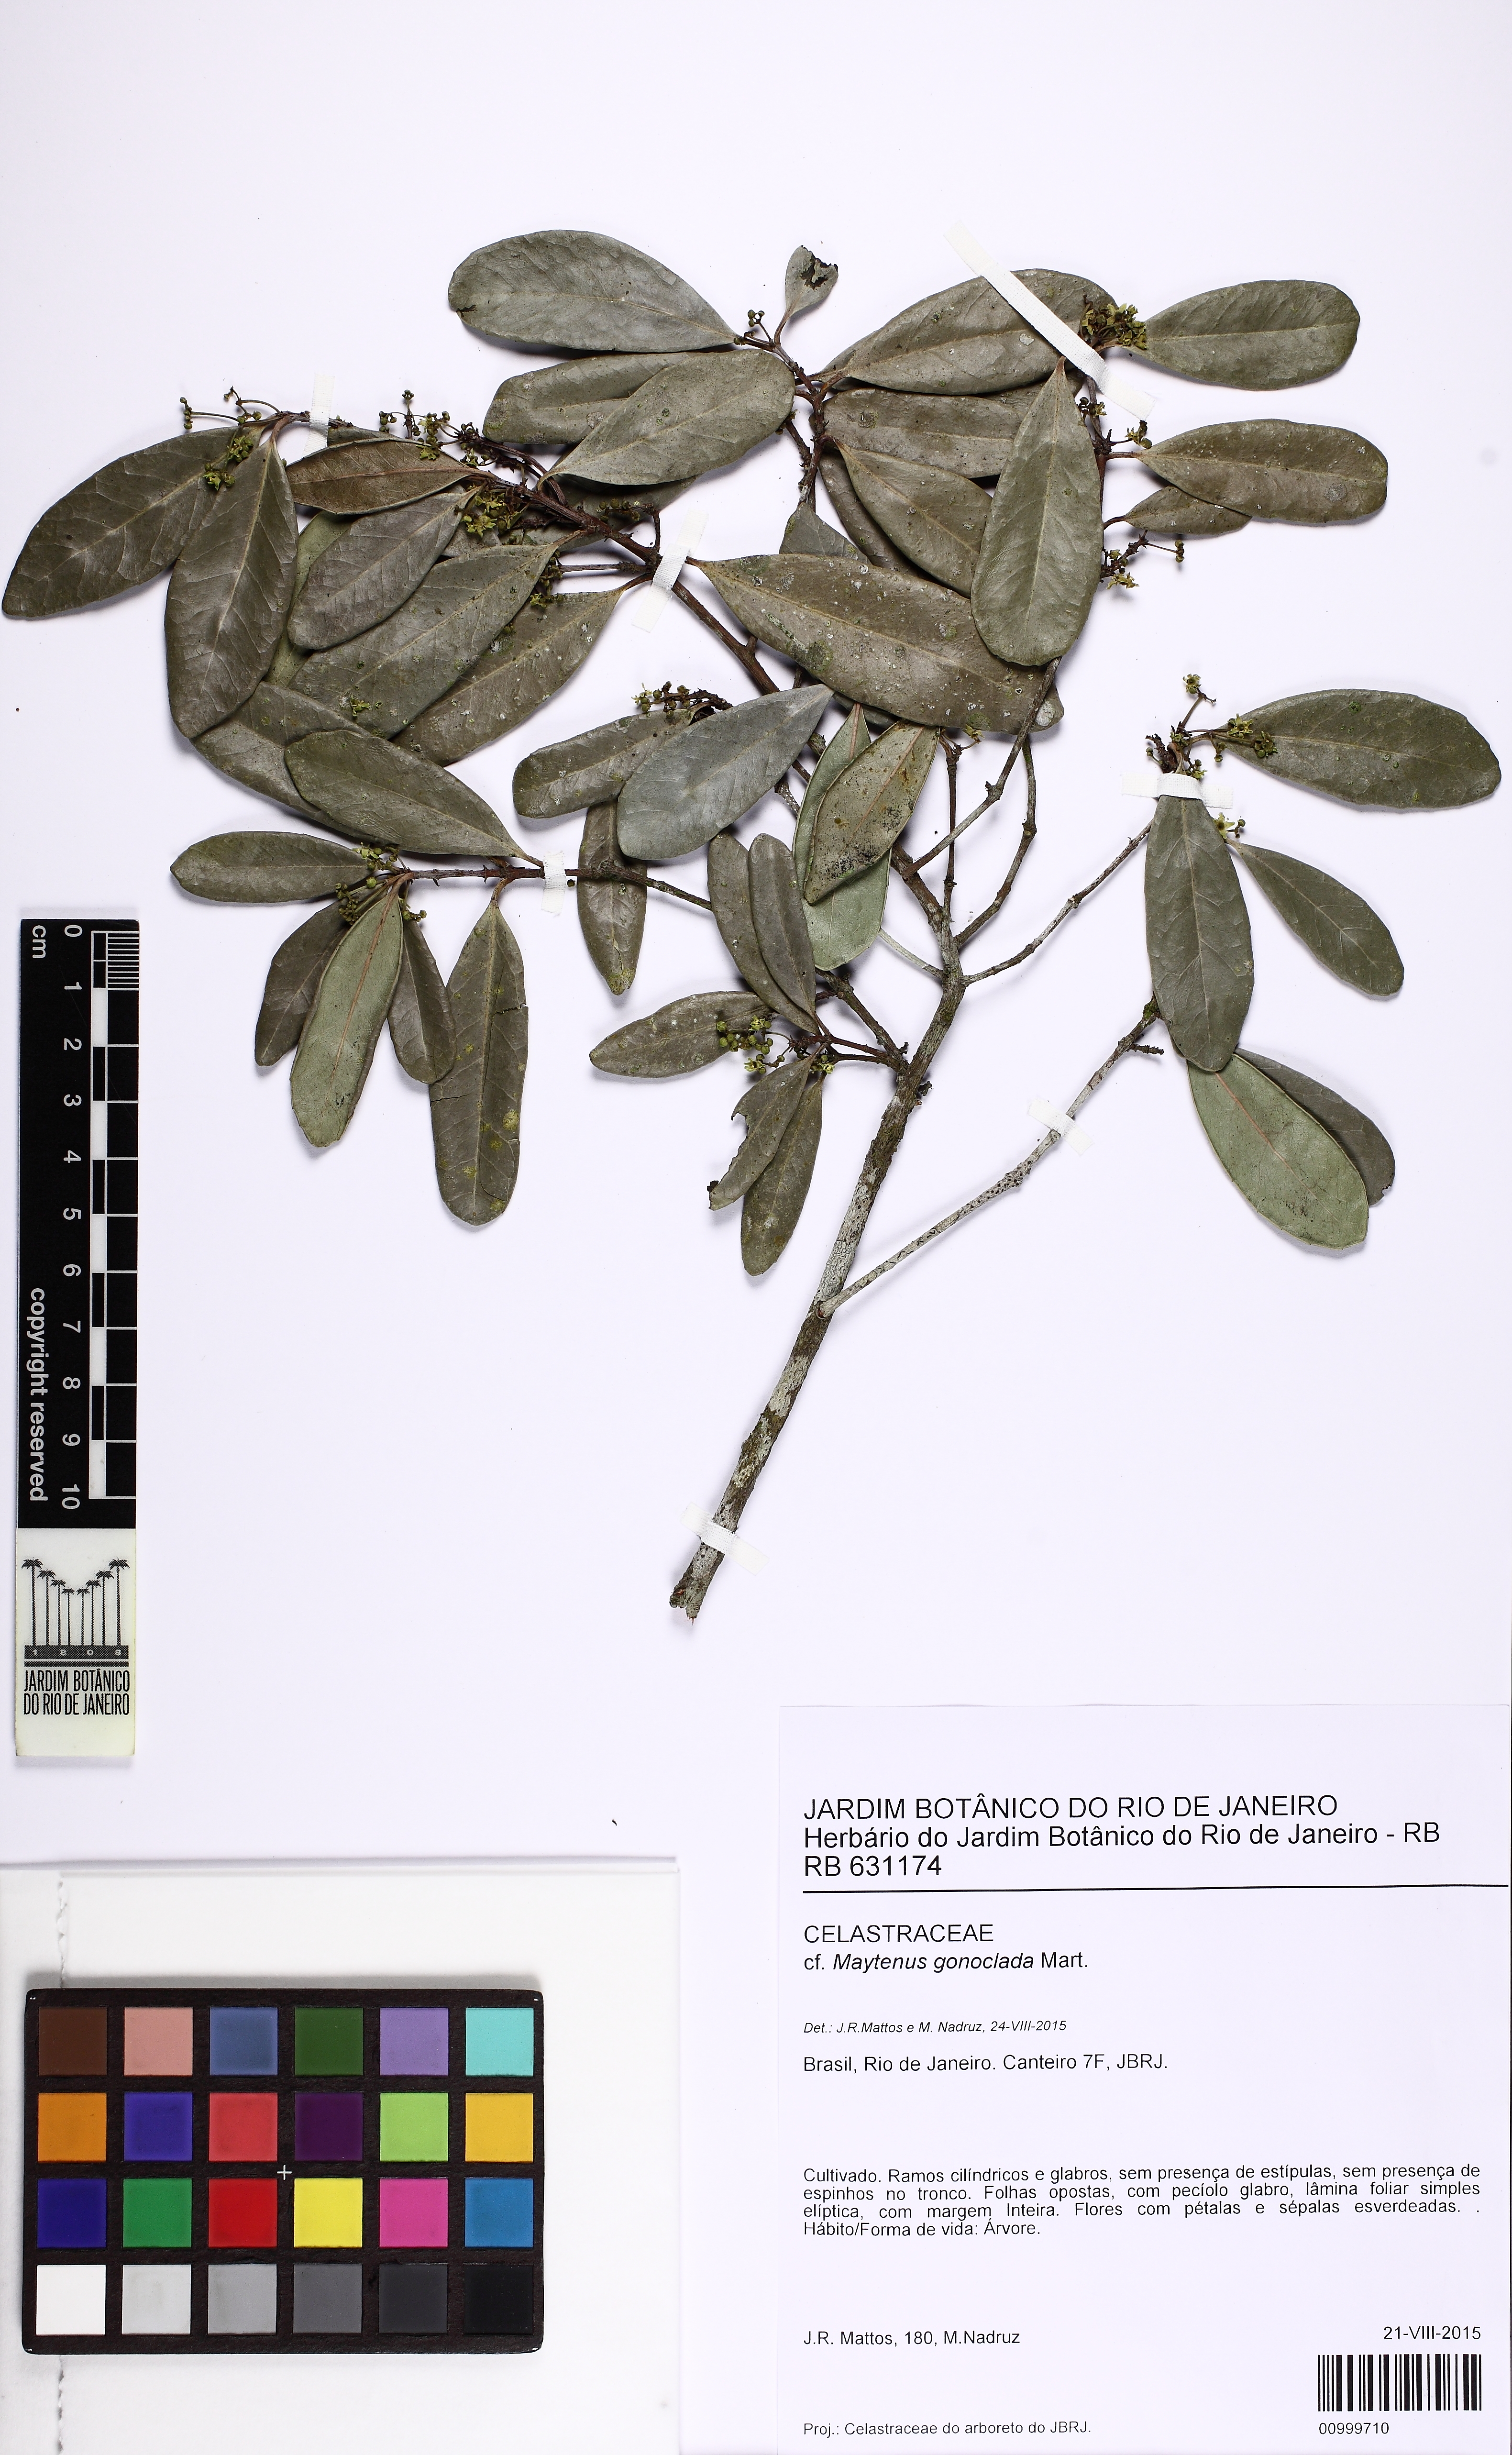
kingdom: Plantae
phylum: Tracheophyta
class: Magnoliopsida
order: Celastrales
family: Celastraceae
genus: Monteverdia
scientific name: Monteverdia gonoclada
